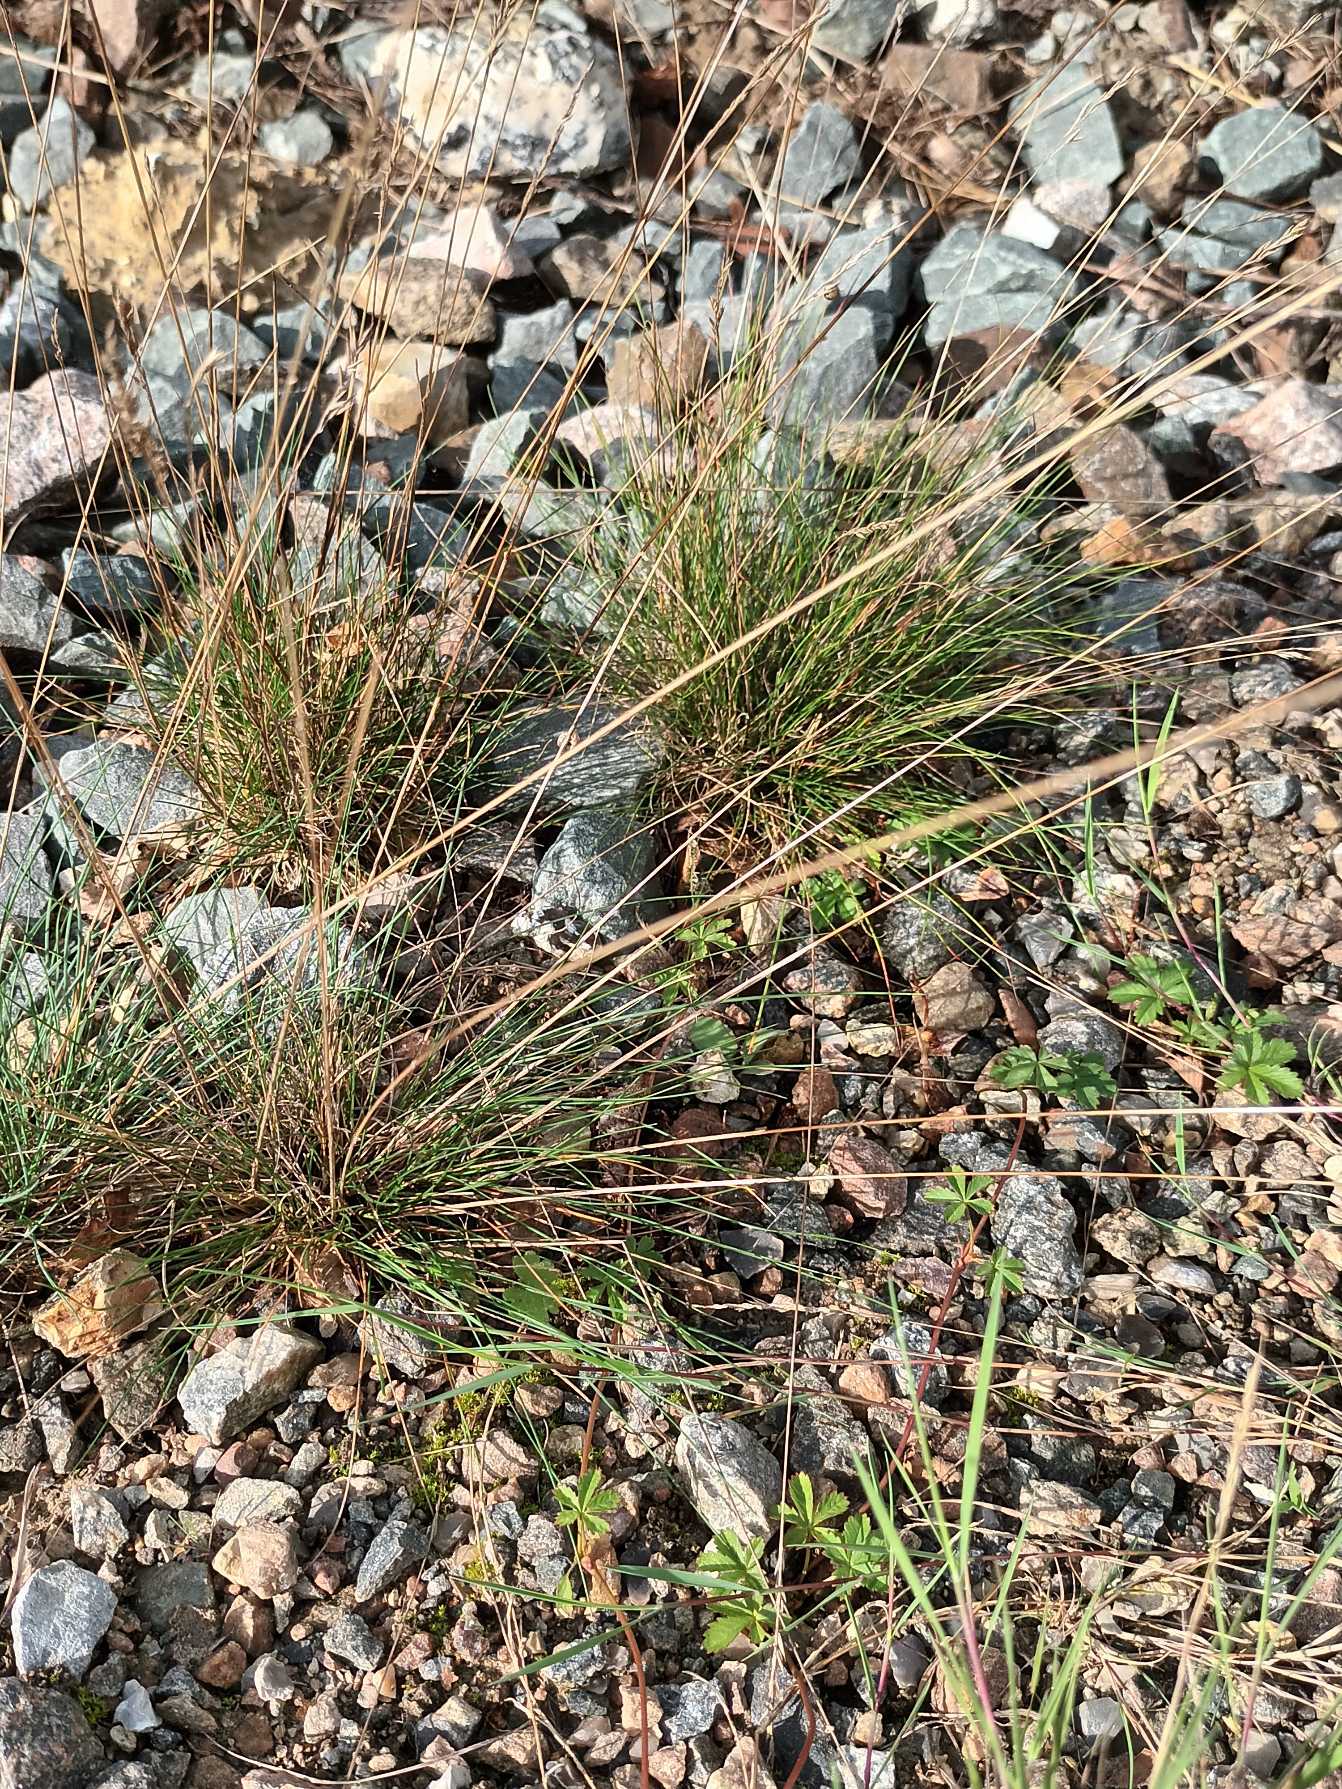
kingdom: Plantae
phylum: Tracheophyta
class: Liliopsida
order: Poales
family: Poaceae
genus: Festuca
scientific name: Festuca trachyphylla
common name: Bakke-svingel
